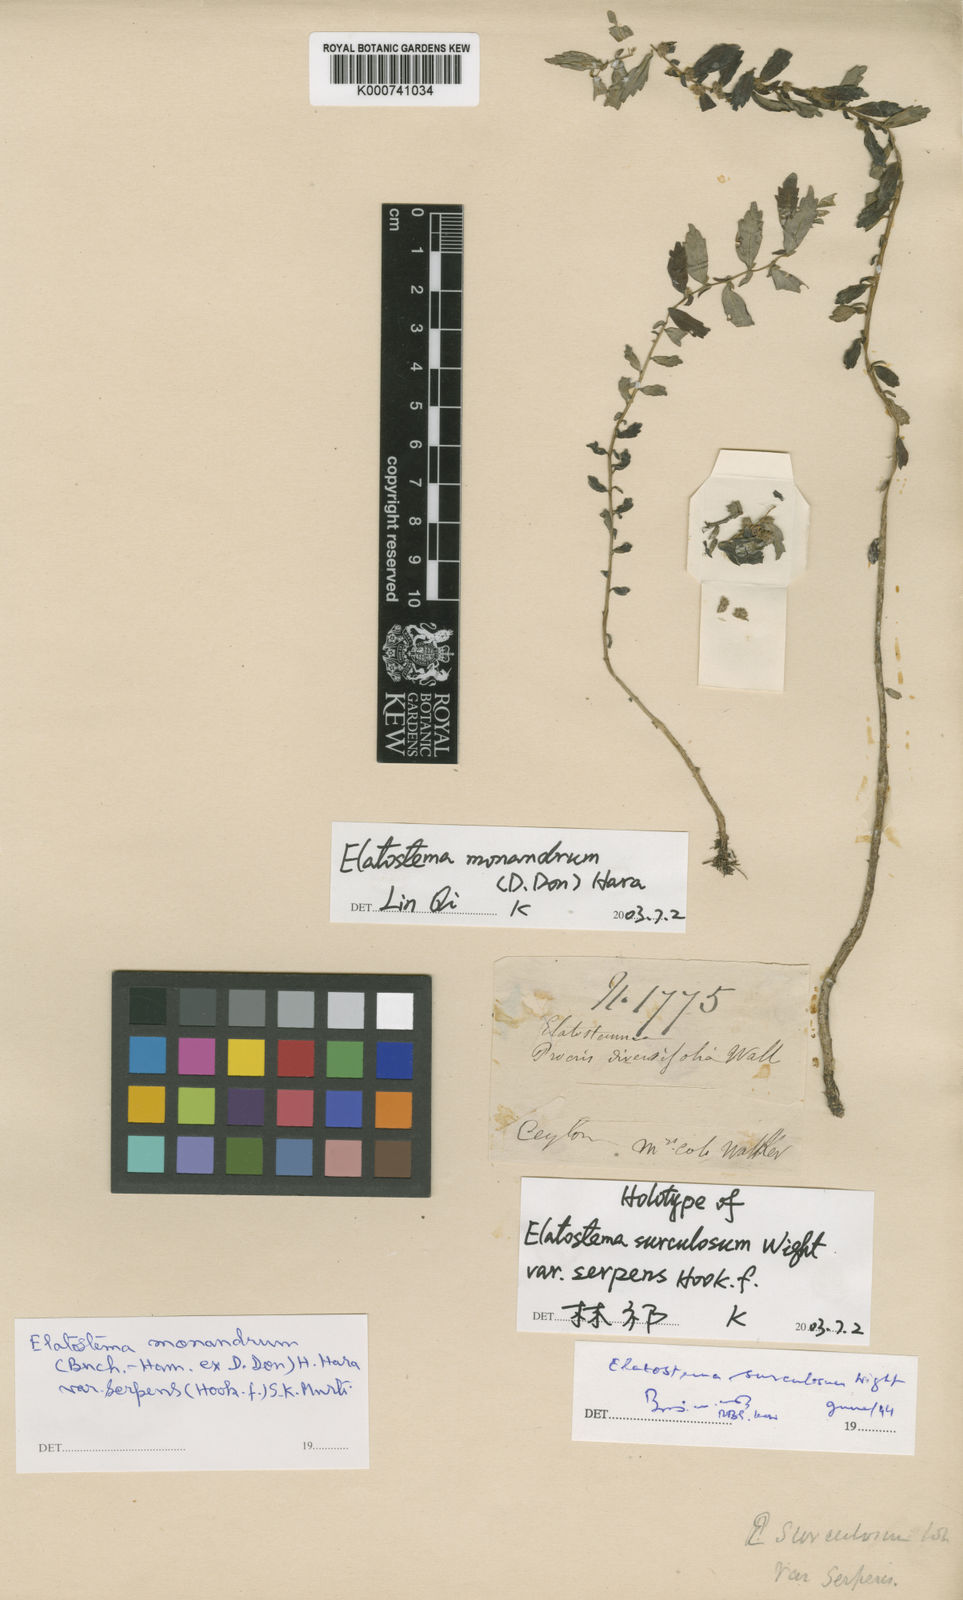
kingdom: Plantae
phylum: Tracheophyta
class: Magnoliopsida
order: Rosales
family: Urticaceae
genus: Elatostema
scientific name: Elatostema monandrum
